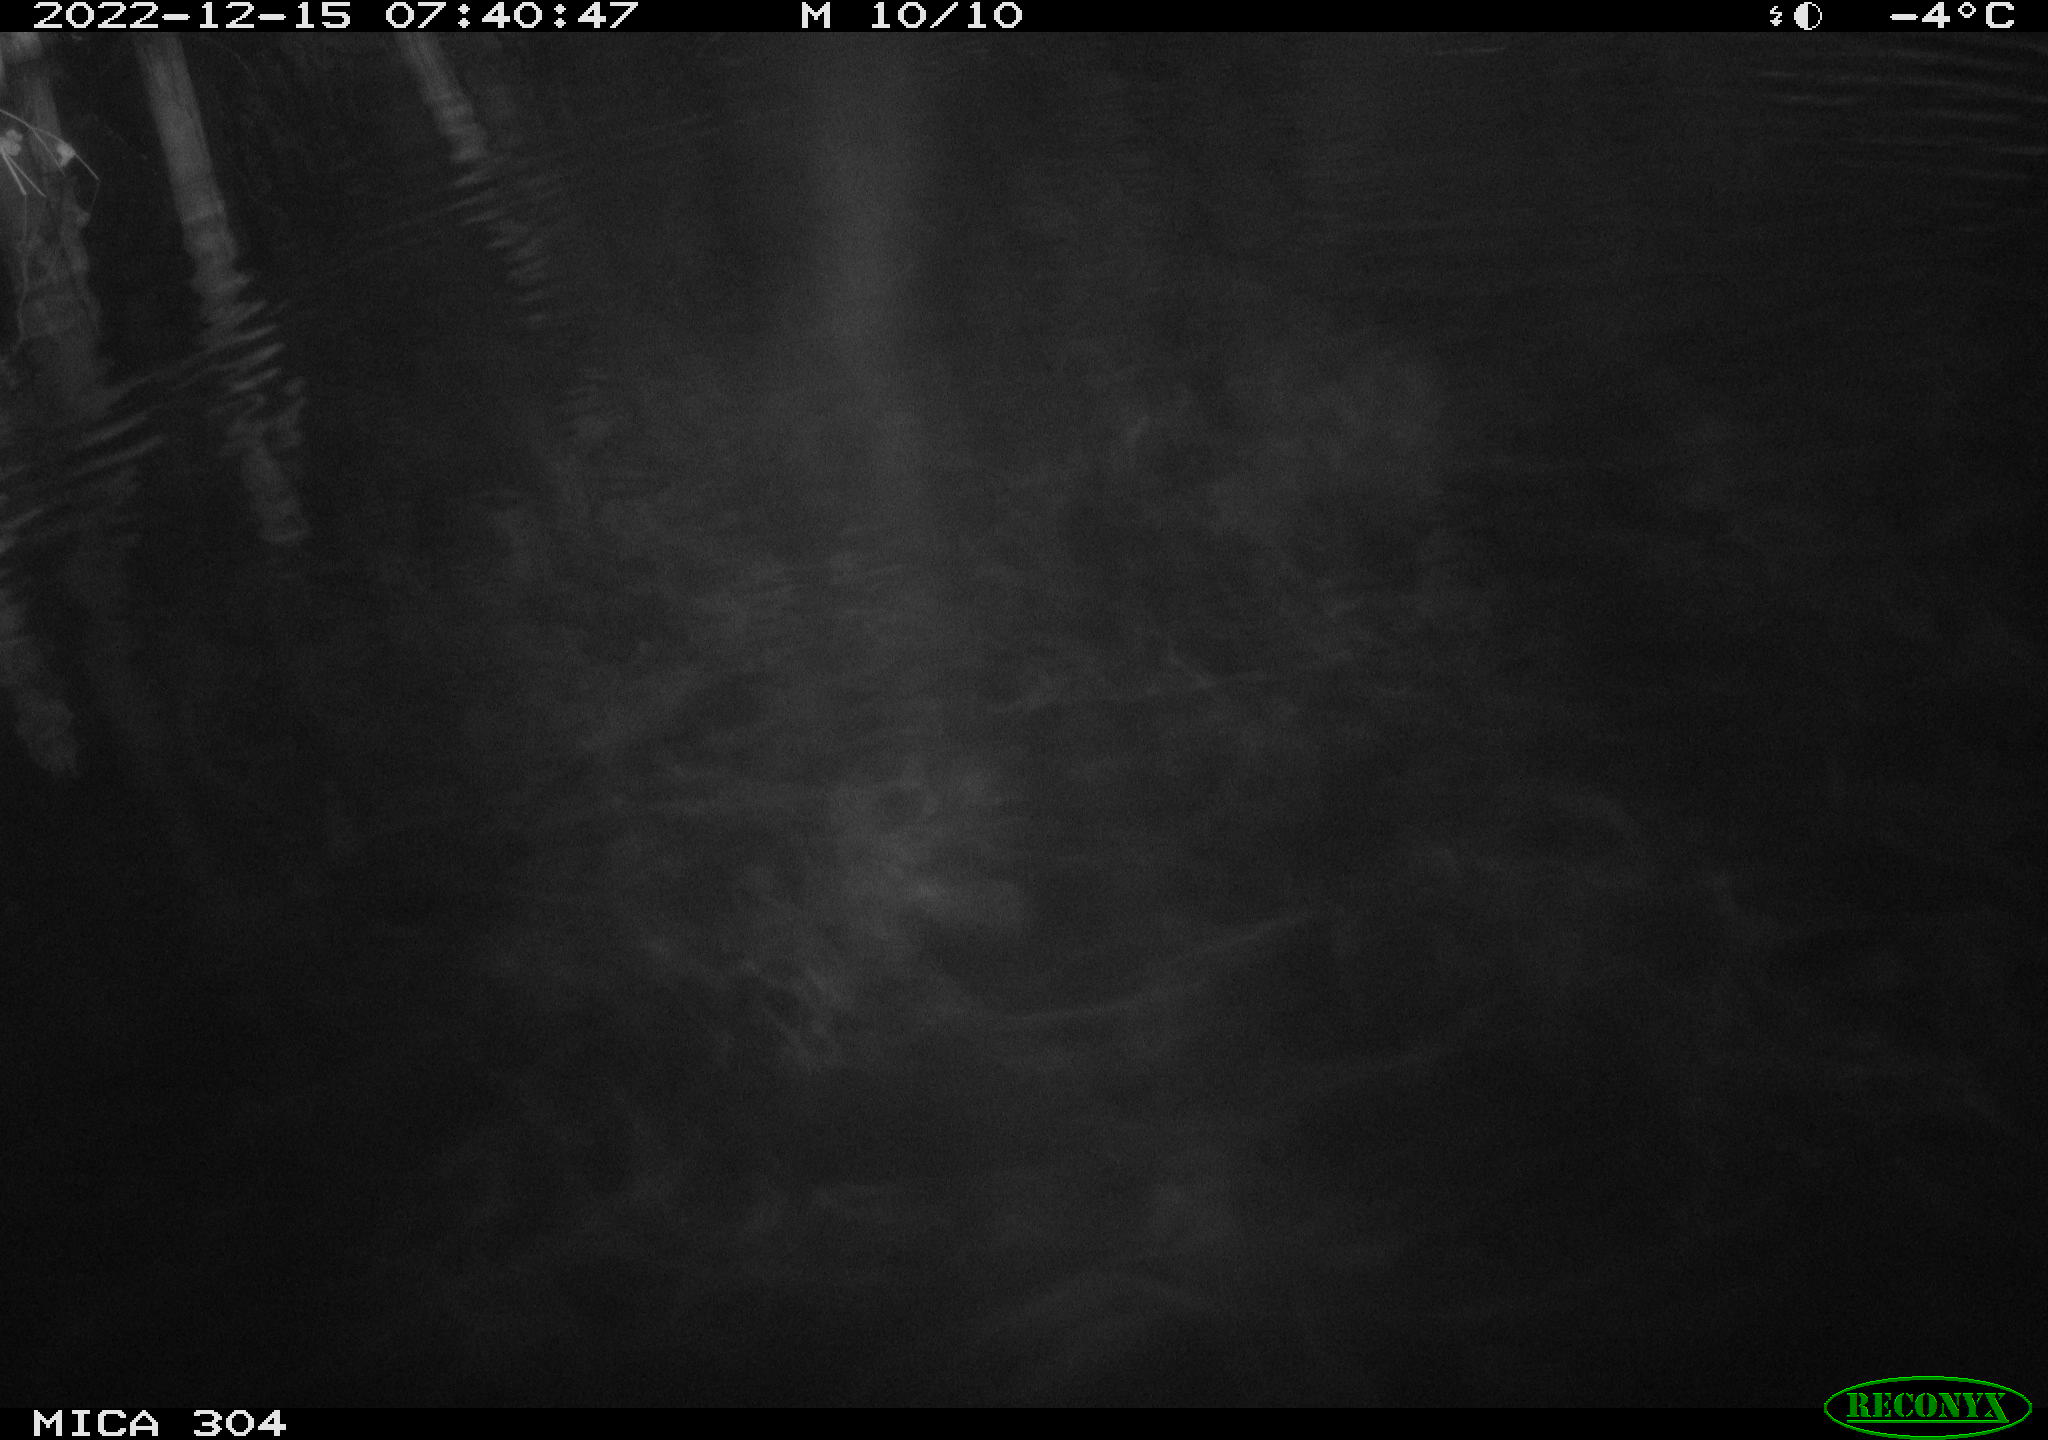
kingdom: Animalia
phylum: Chordata
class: Mammalia
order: Rodentia
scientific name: Rodentia
